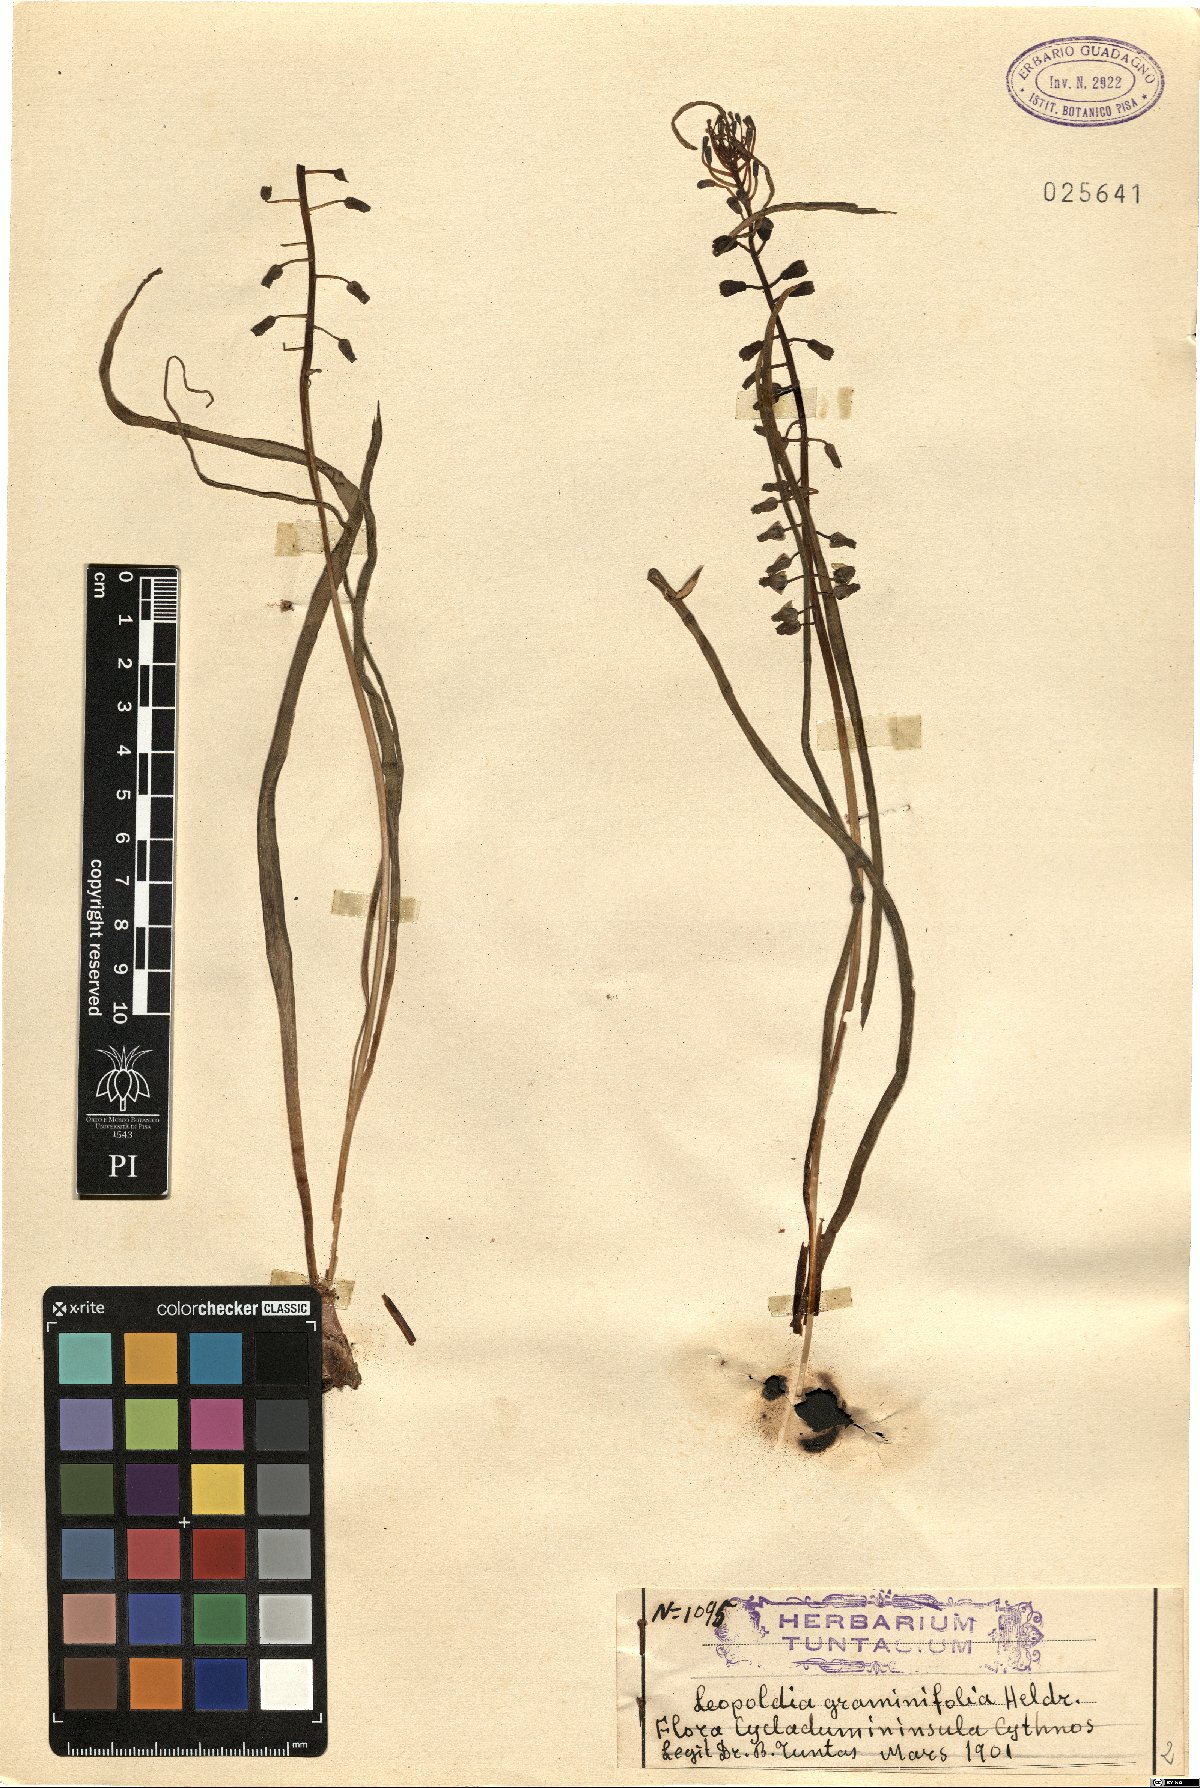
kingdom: Plantae
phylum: Tracheophyta
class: Liliopsida
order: Asparagales
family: Asparagaceae
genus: Muscari
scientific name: Muscari comosum
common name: Tassel hyacinth
